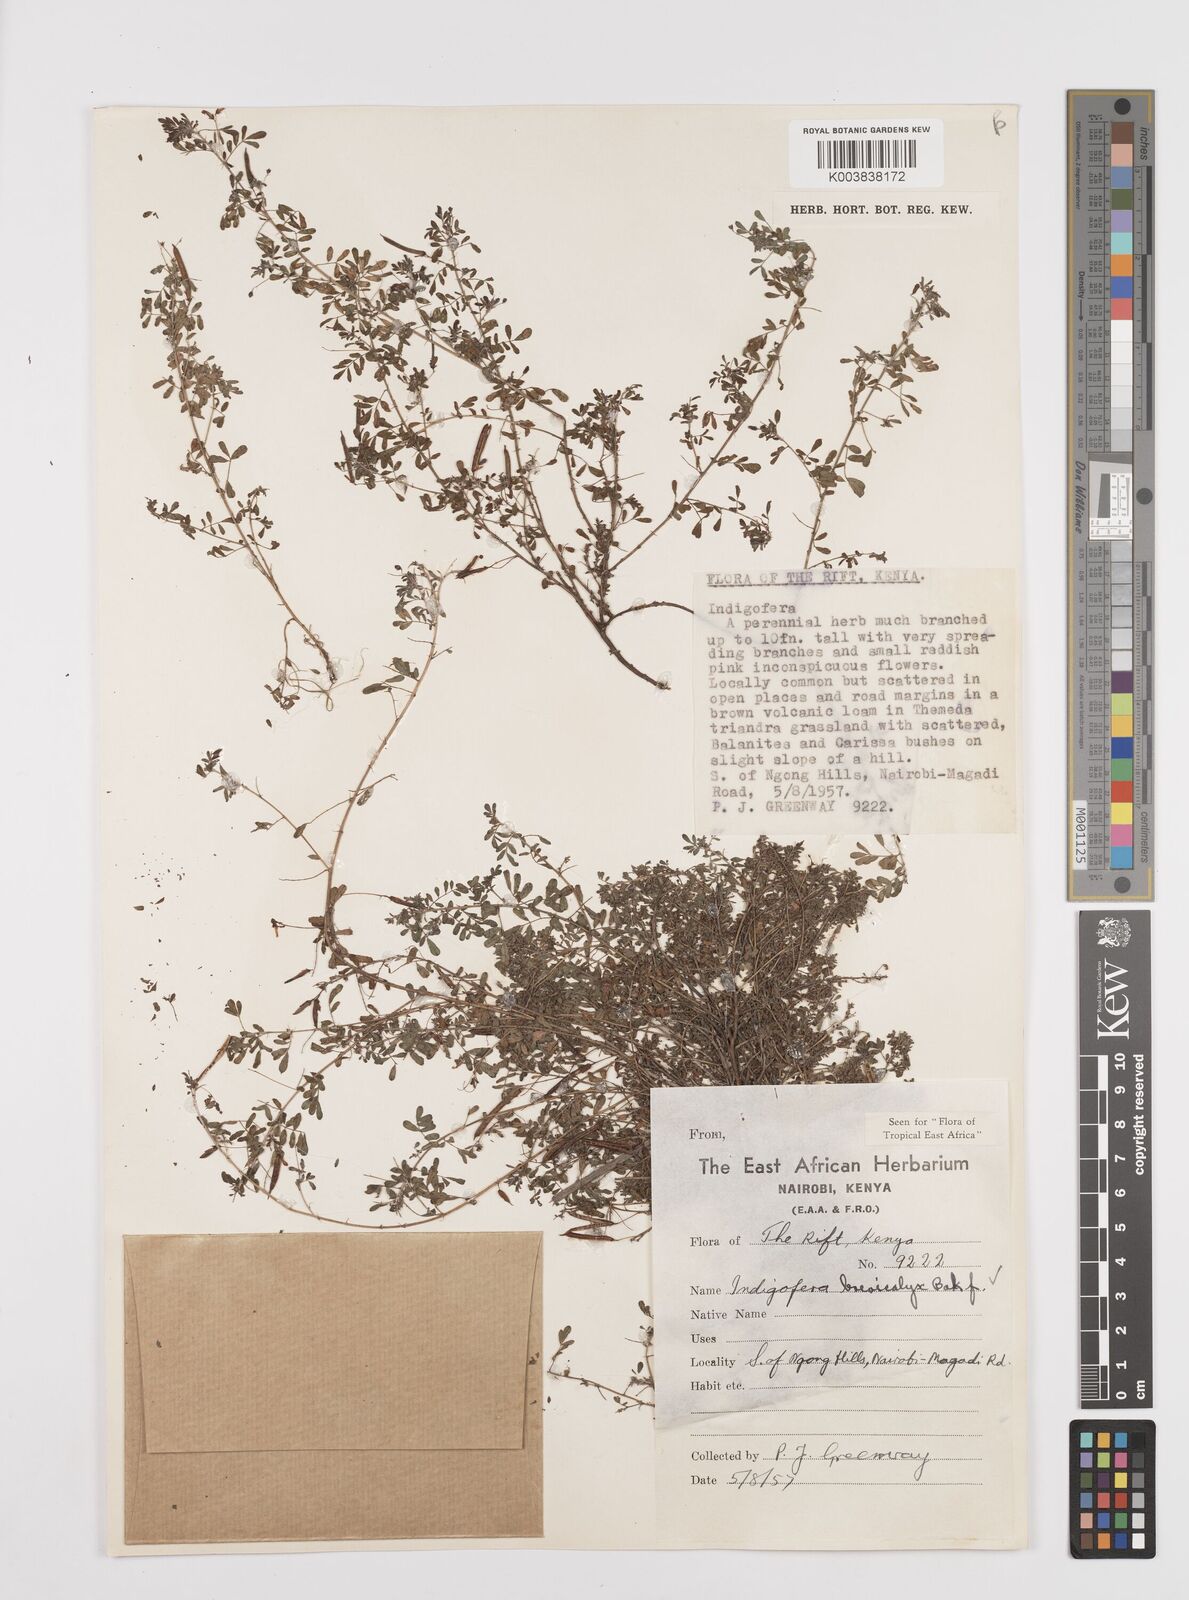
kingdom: Plantae
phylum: Tracheophyta
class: Magnoliopsida
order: Fabales
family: Fabaceae
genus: Indigofera
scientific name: Indigofera brevicalyx
